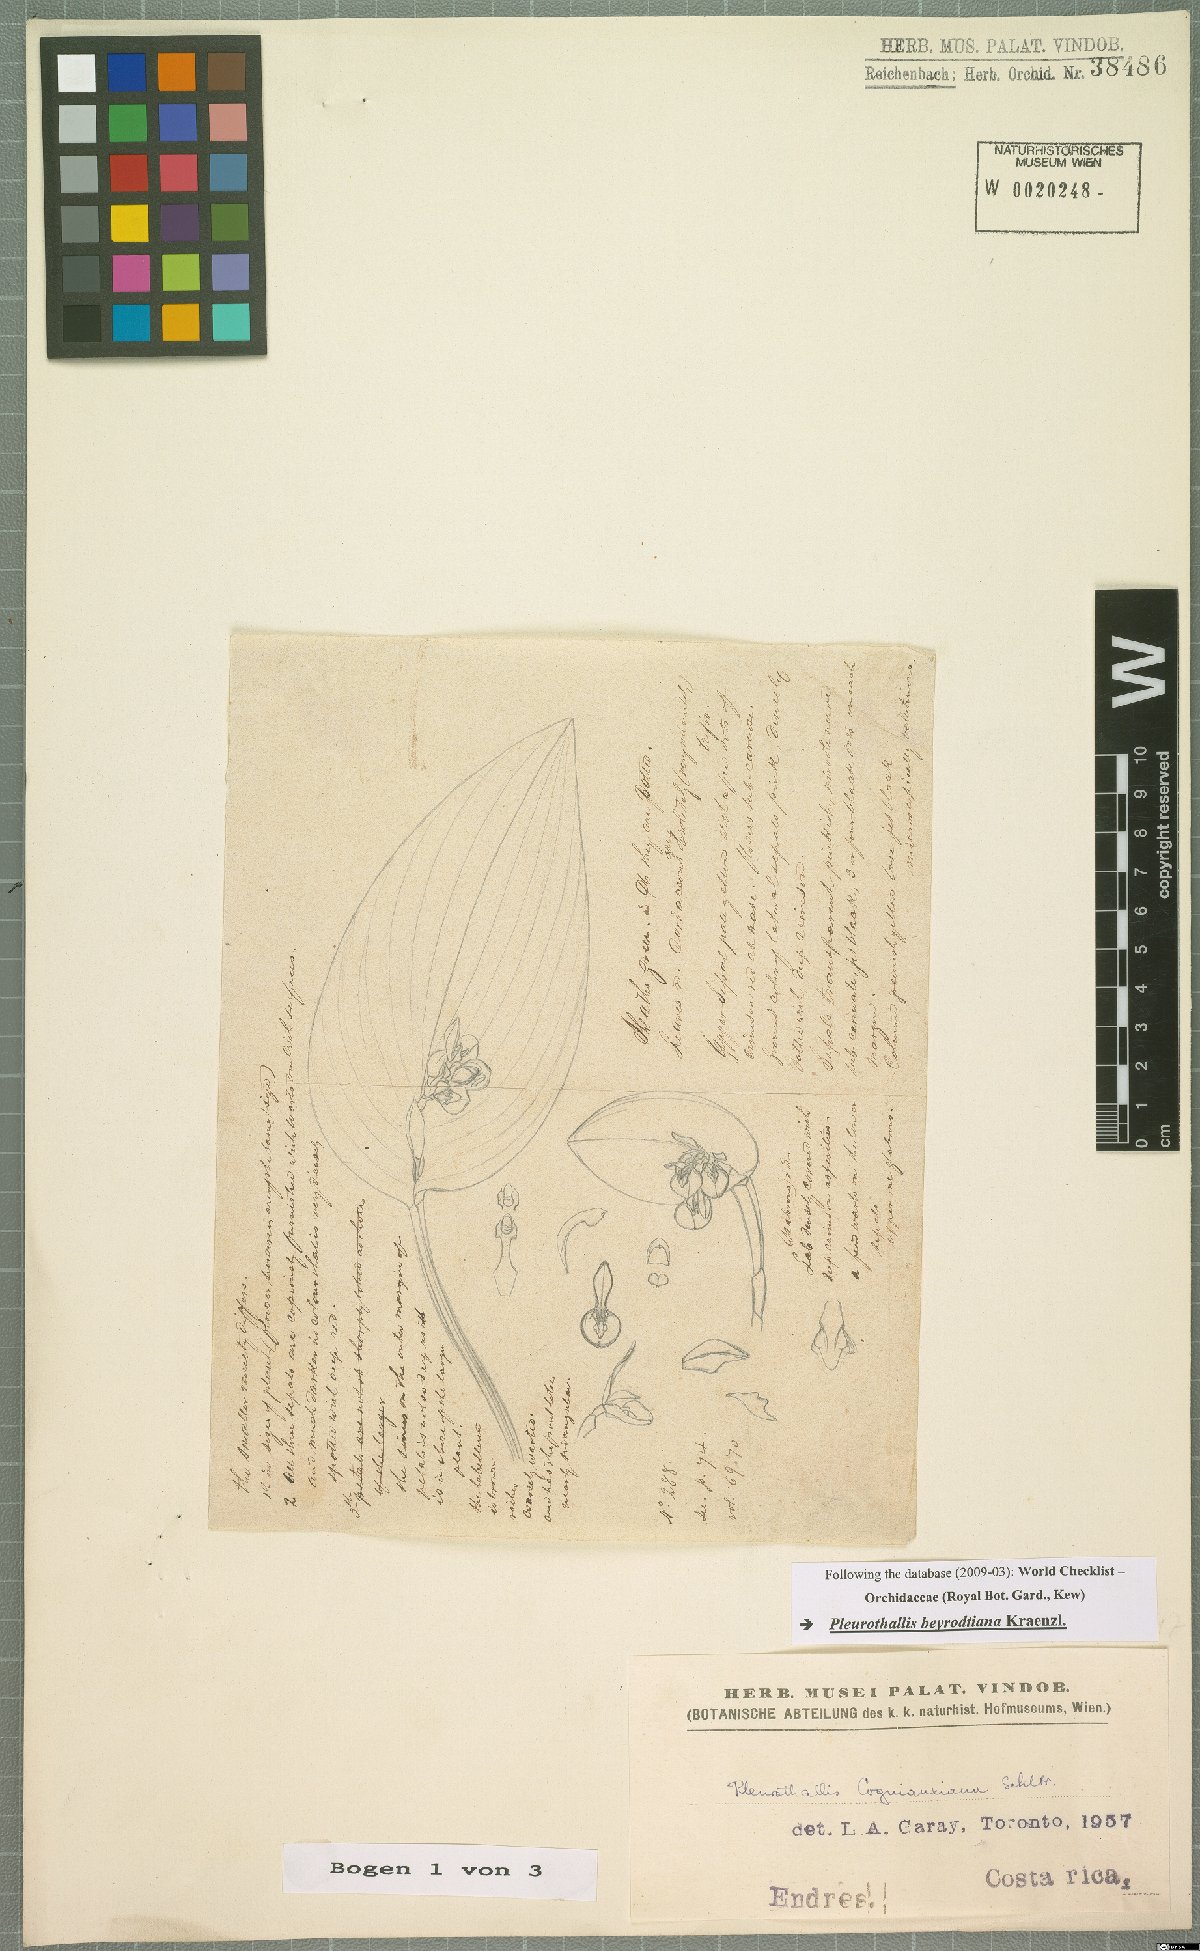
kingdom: Plantae
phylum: Tracheophyta
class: Liliopsida
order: Asparagales
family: Orchidaceae
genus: Acianthera
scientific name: Acianthera beyrodtiana
